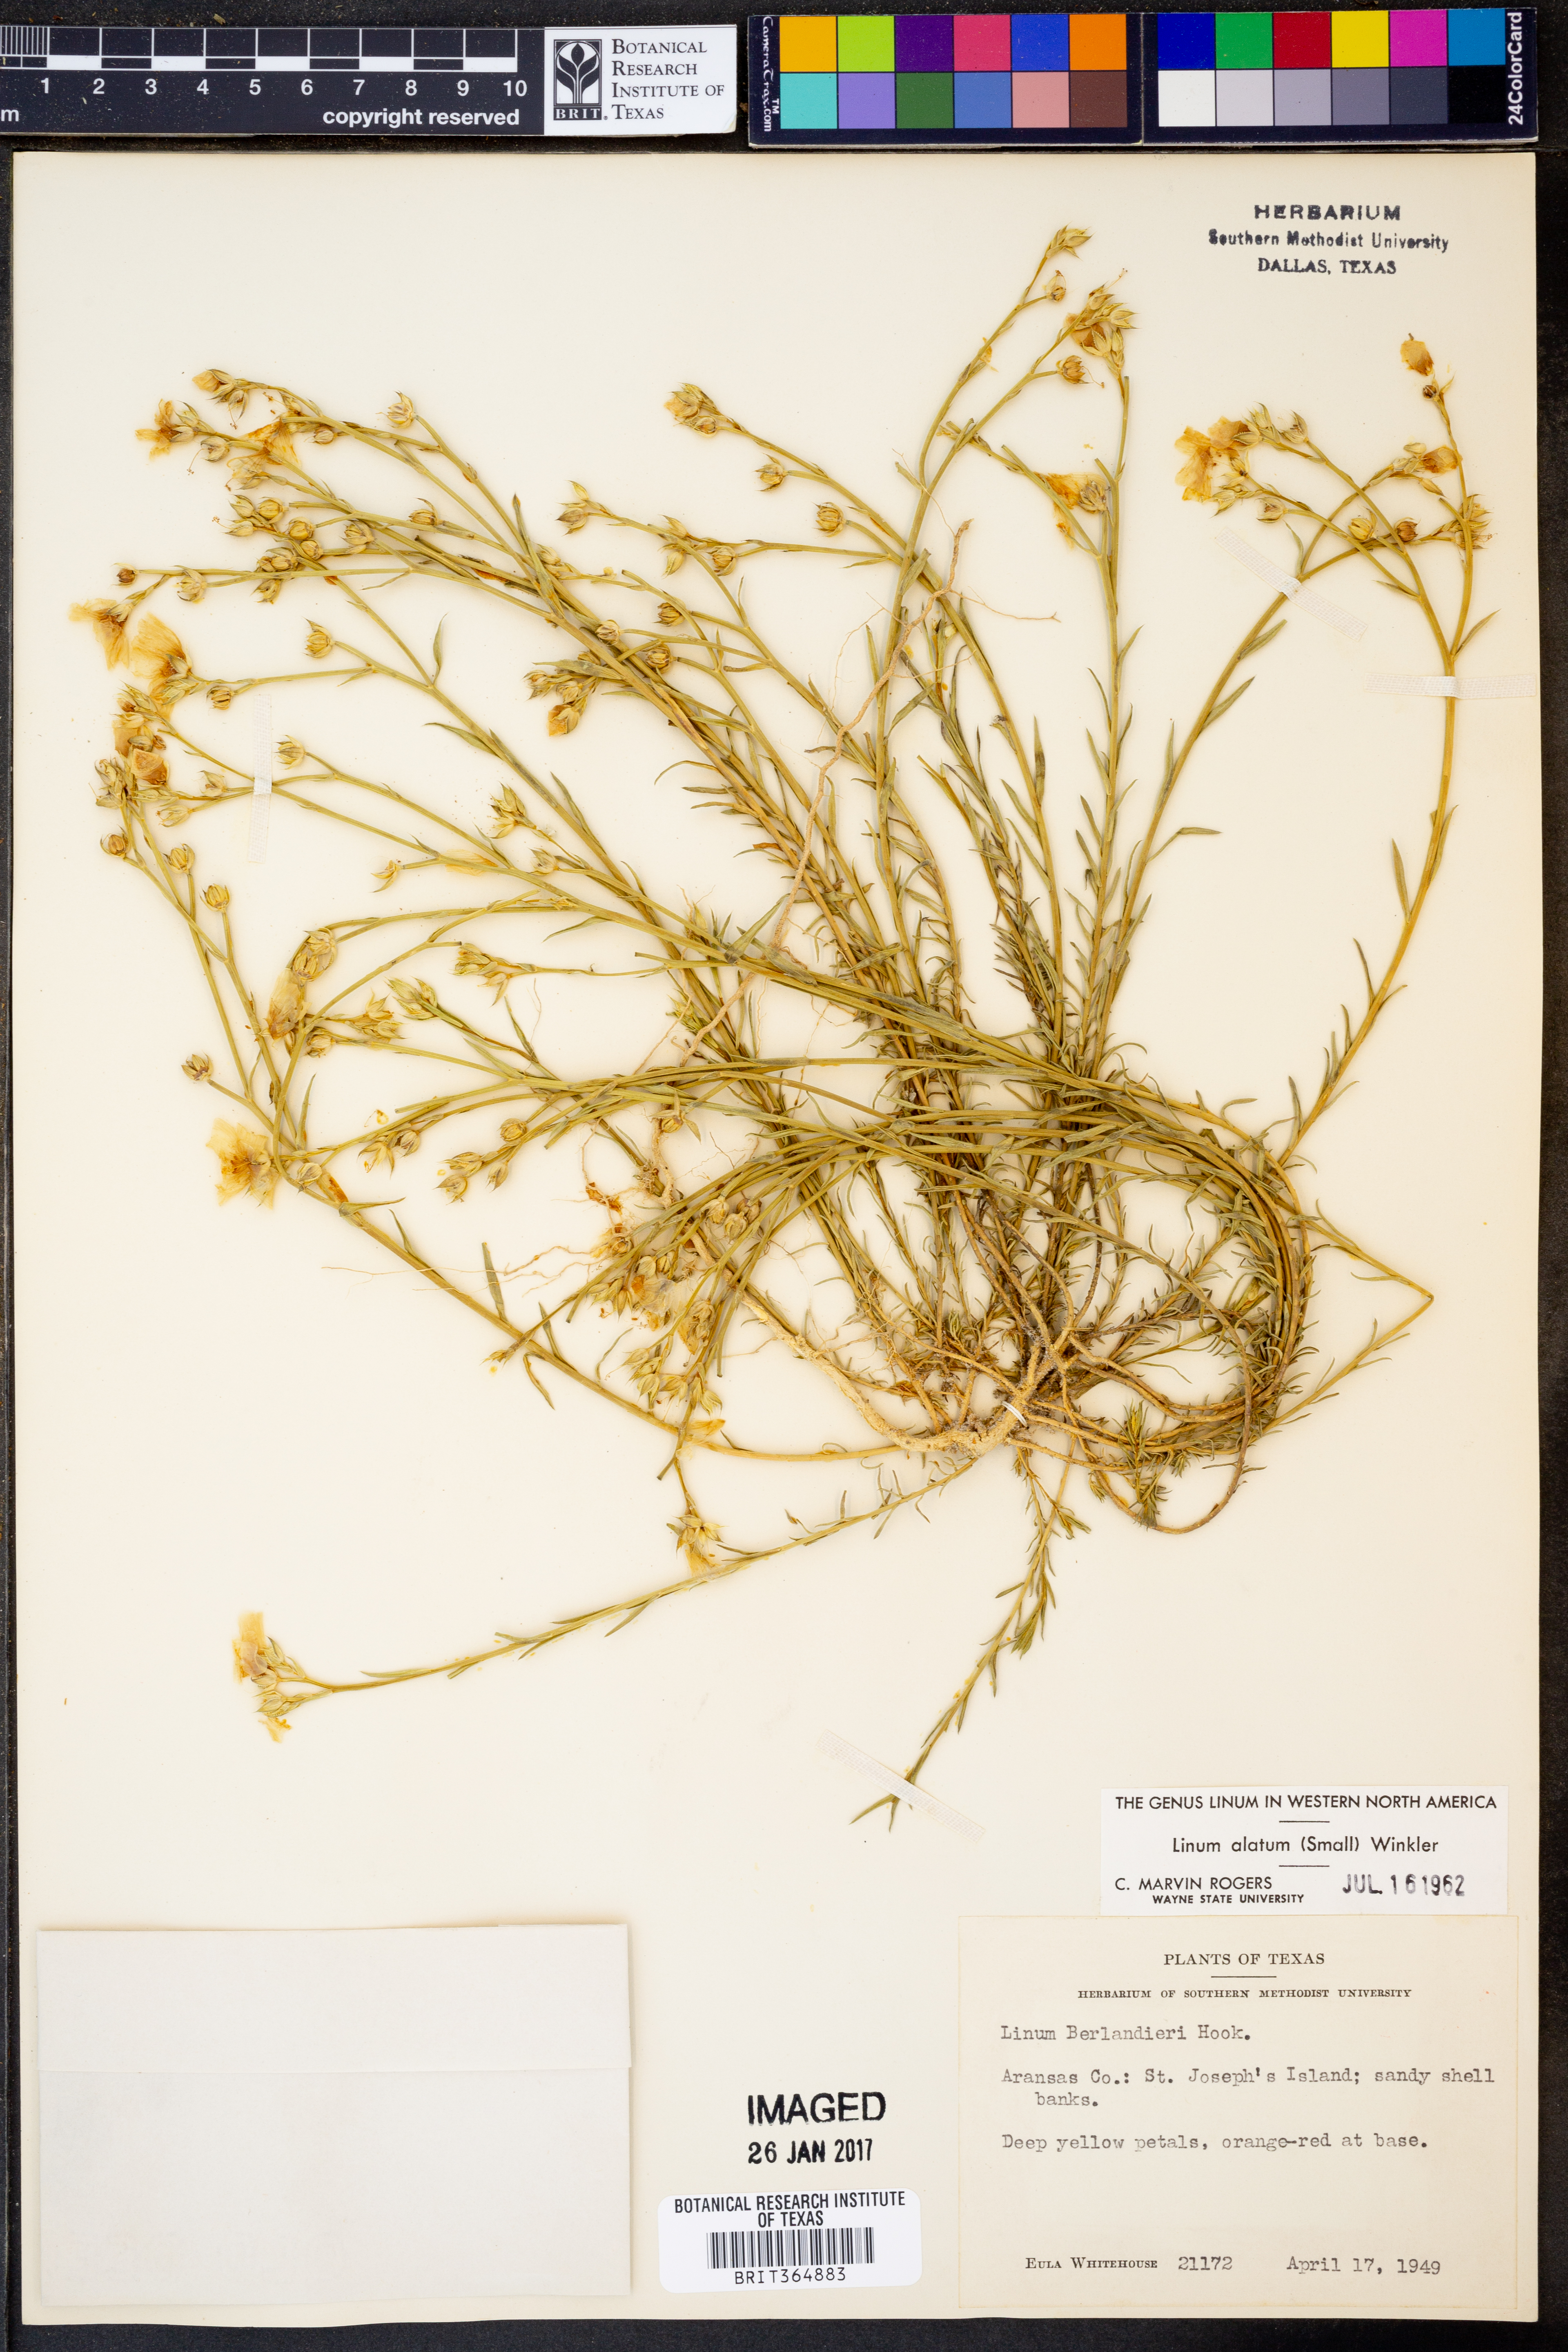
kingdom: Plantae
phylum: Tracheophyta
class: Magnoliopsida
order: Malpighiales
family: Linaceae
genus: Linum
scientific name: Linum alatum
